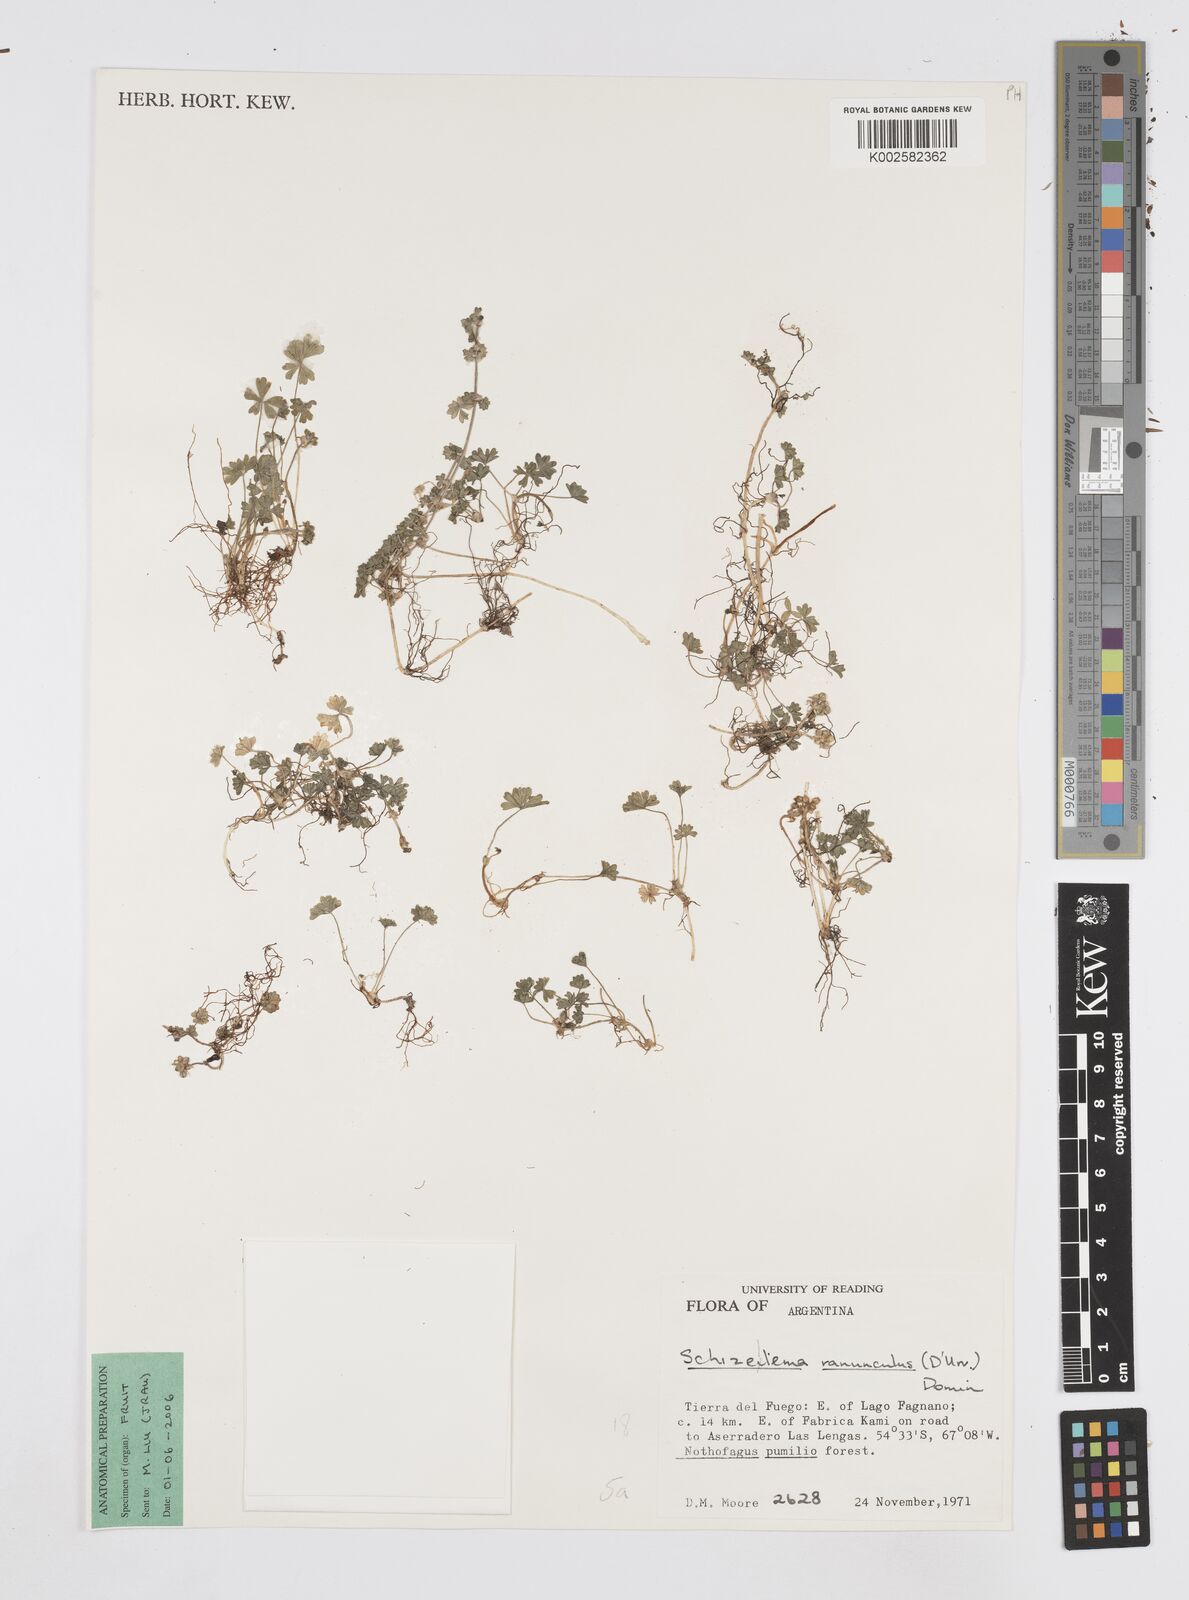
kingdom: Plantae
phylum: Tracheophyta
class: Magnoliopsida
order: Apiales
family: Apiaceae
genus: Azorella
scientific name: Azorella ranunculus
